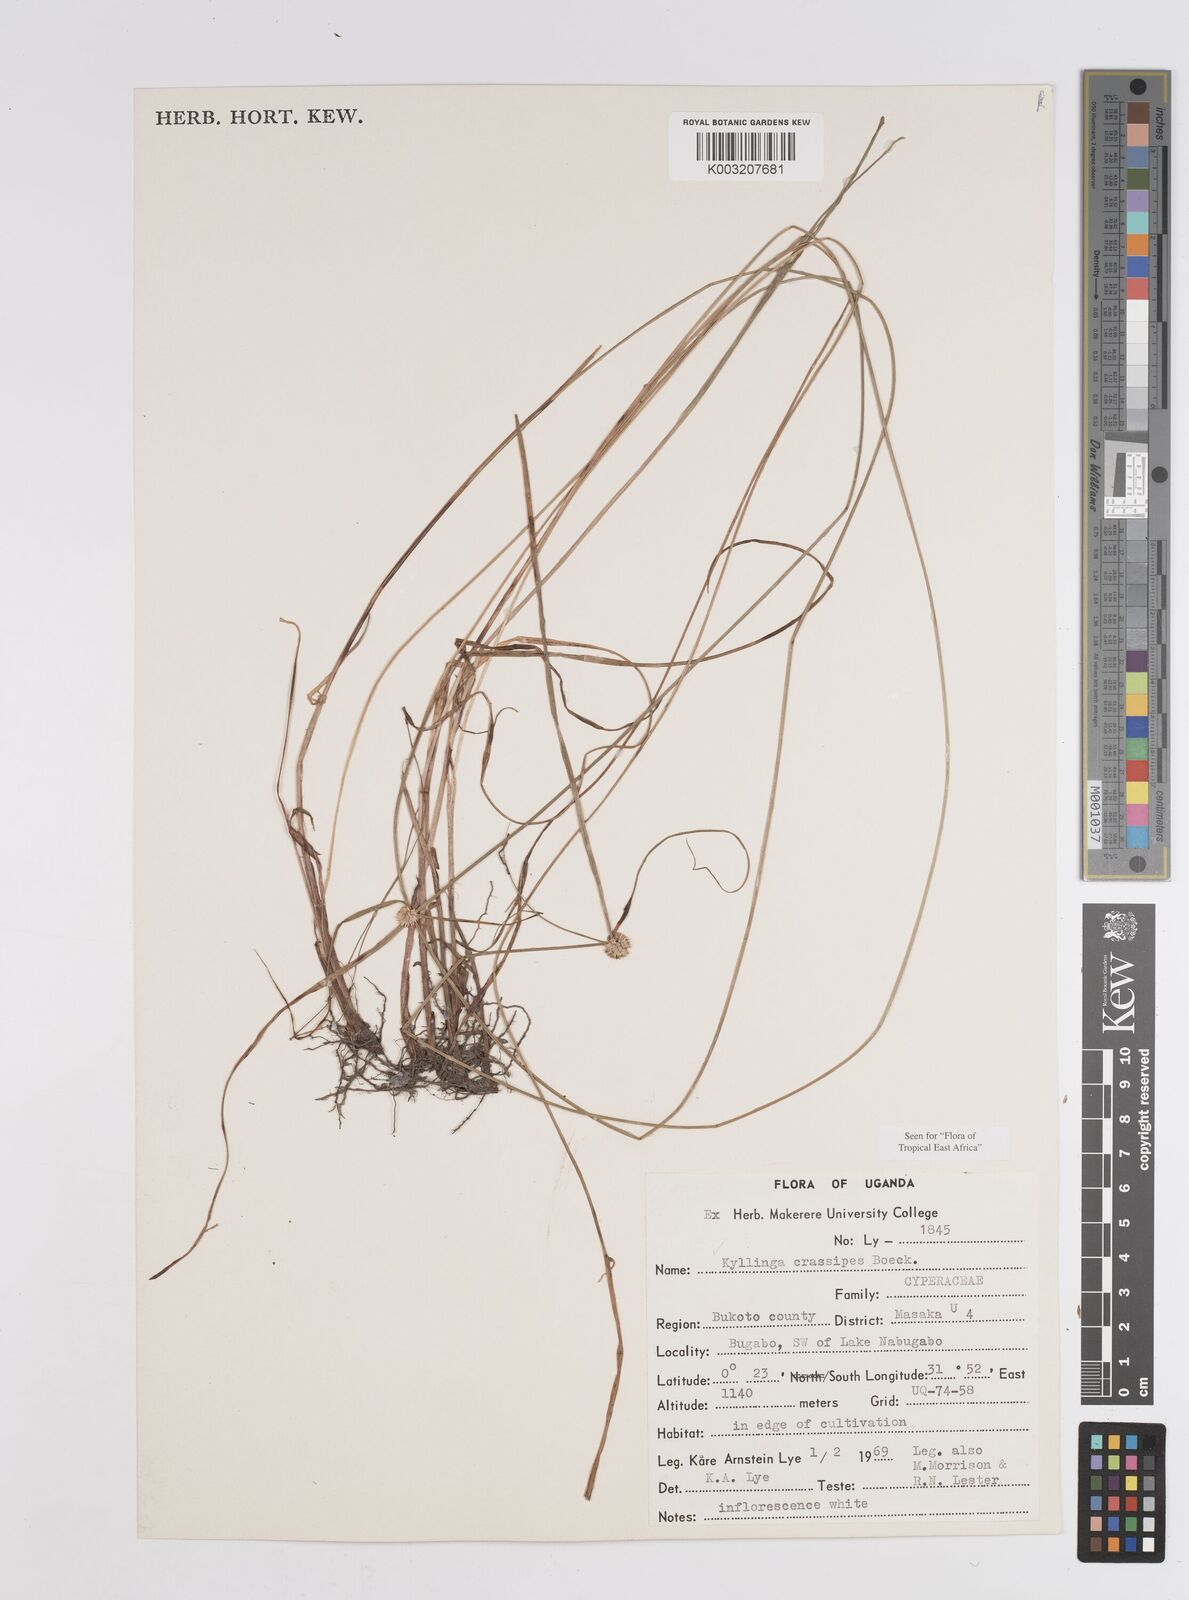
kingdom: Plantae
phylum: Tracheophyta
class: Liliopsida
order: Poales
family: Cyperaceae
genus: Cyperus
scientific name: Cyperus crassipes
